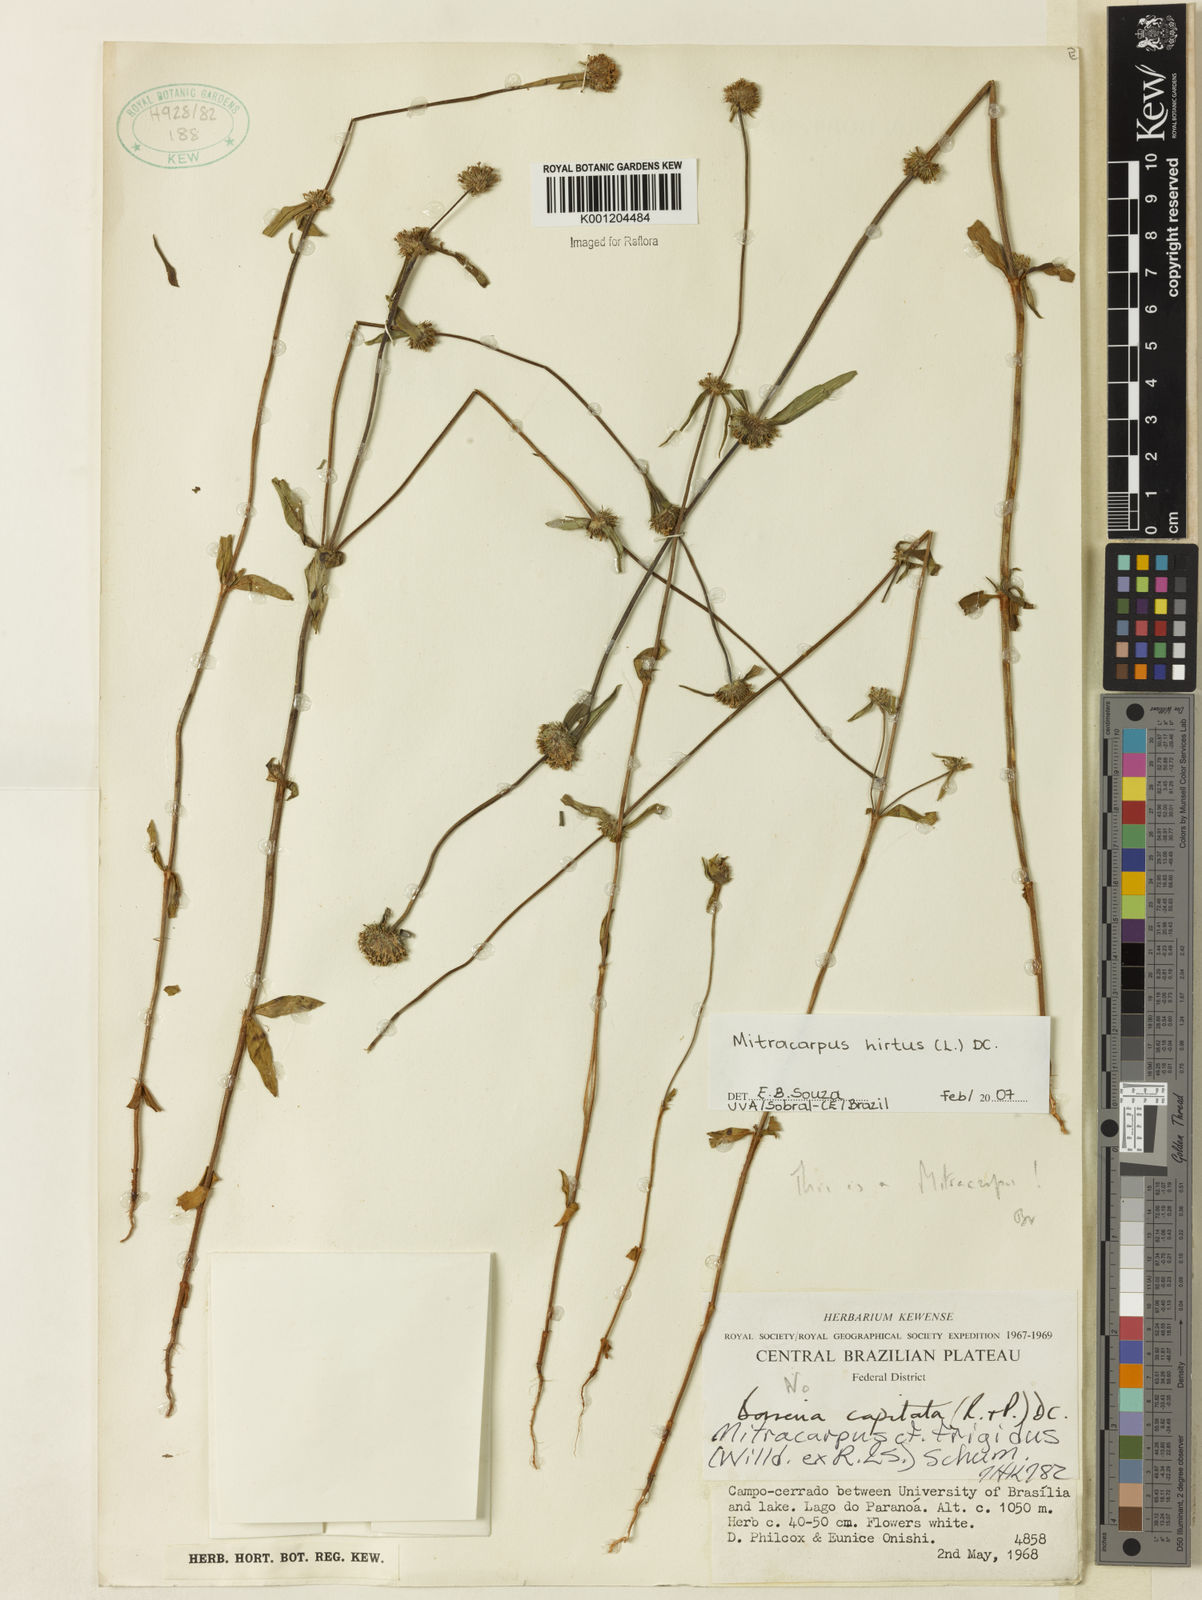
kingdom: Plantae
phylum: Tracheophyta
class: Magnoliopsida
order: Gentianales
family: Rubiaceae
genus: Mitracarpus
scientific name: Mitracarpus hirtus
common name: Tropical girdlepod
